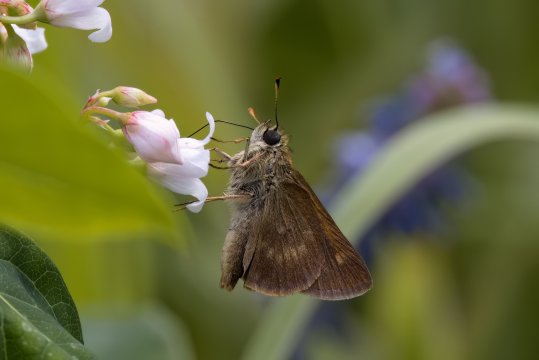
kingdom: Animalia
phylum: Arthropoda
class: Insecta
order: Lepidoptera
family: Hesperiidae
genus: Polites
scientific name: Polites egeremet
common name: Northern Broken-Dash
